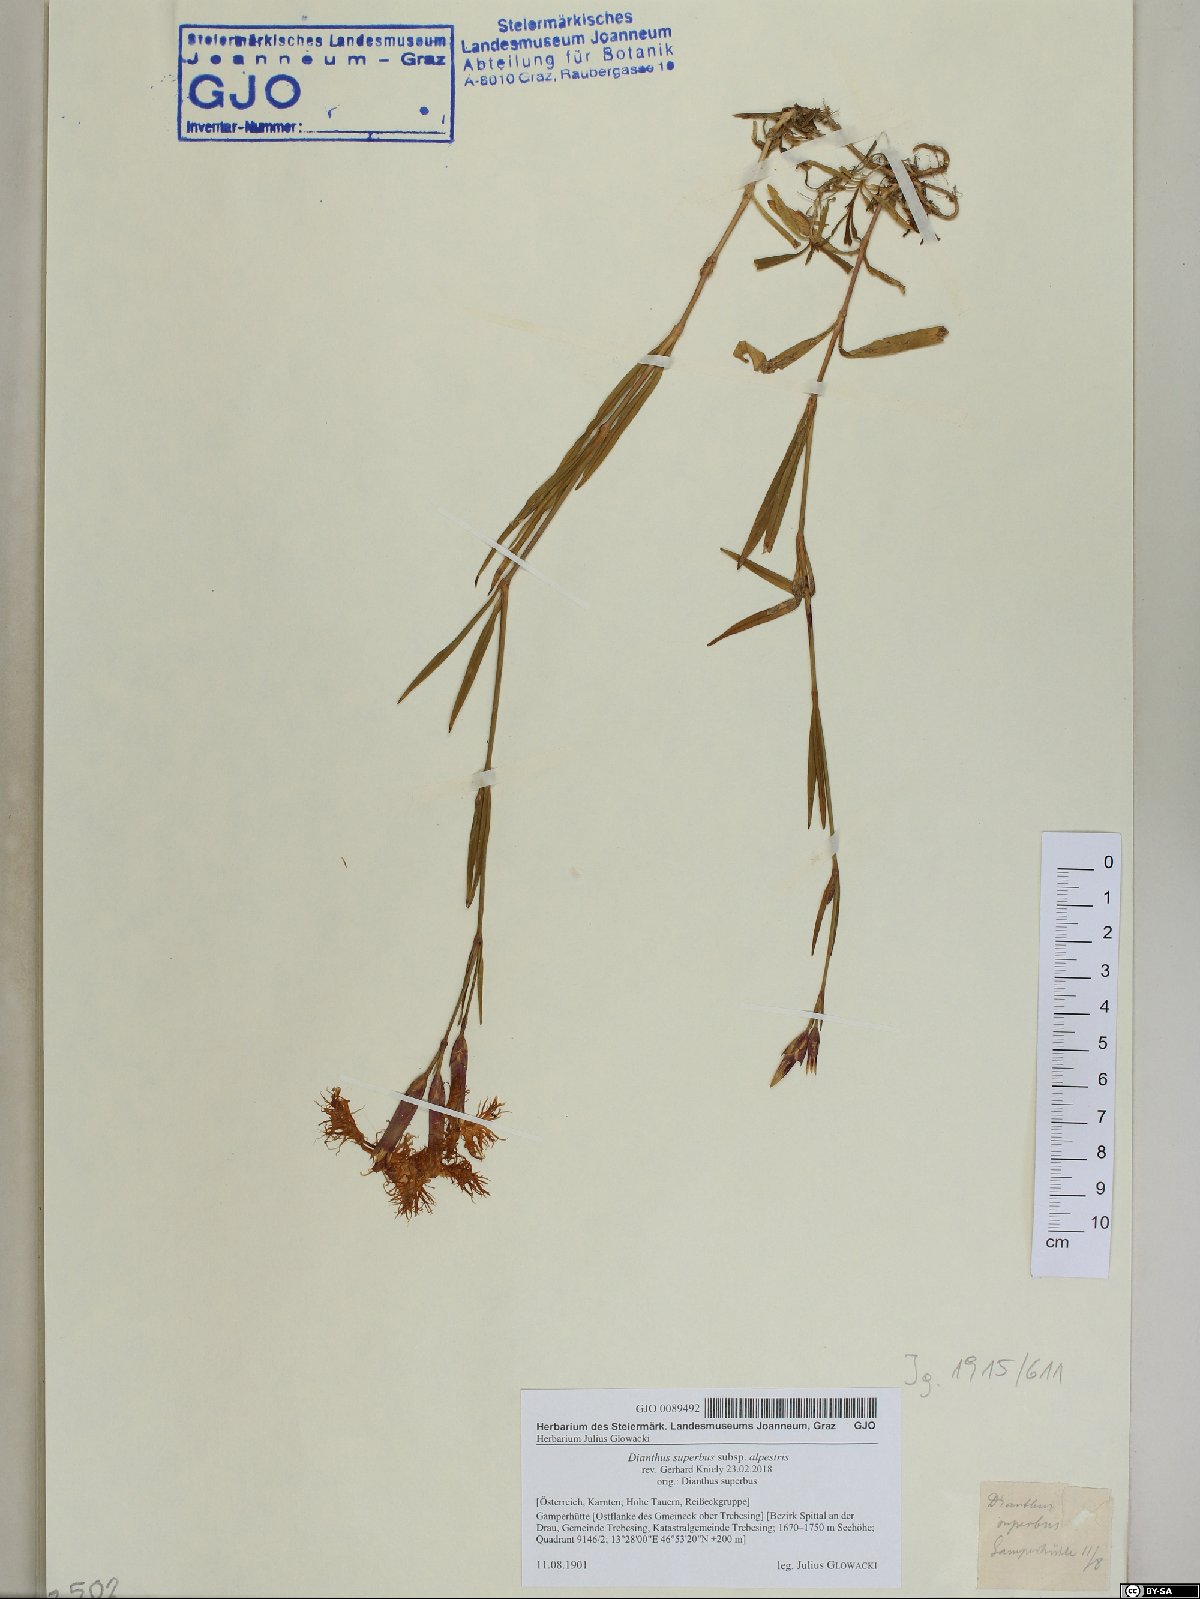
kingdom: Plantae
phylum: Tracheophyta
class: Magnoliopsida
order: Caryophyllales
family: Caryophyllaceae
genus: Dianthus
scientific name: Dianthus superbus
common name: Fringed pink
